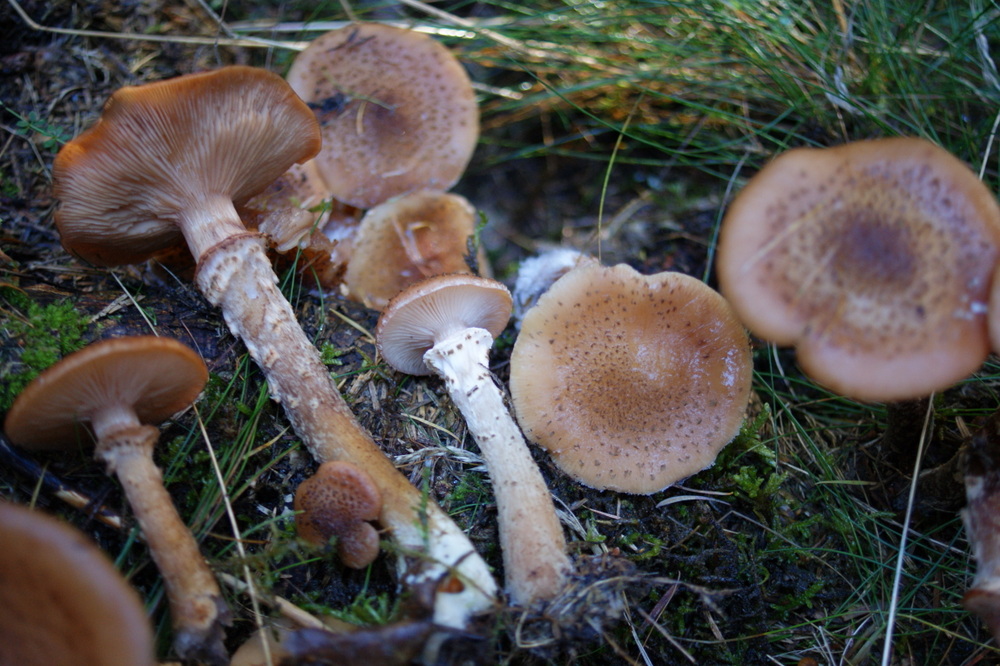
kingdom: Fungi
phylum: Basidiomycota
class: Agaricomycetes
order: Agaricales
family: Physalacriaceae
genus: Armillaria
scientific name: Armillaria ostoyae
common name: mørk honningsvamp
